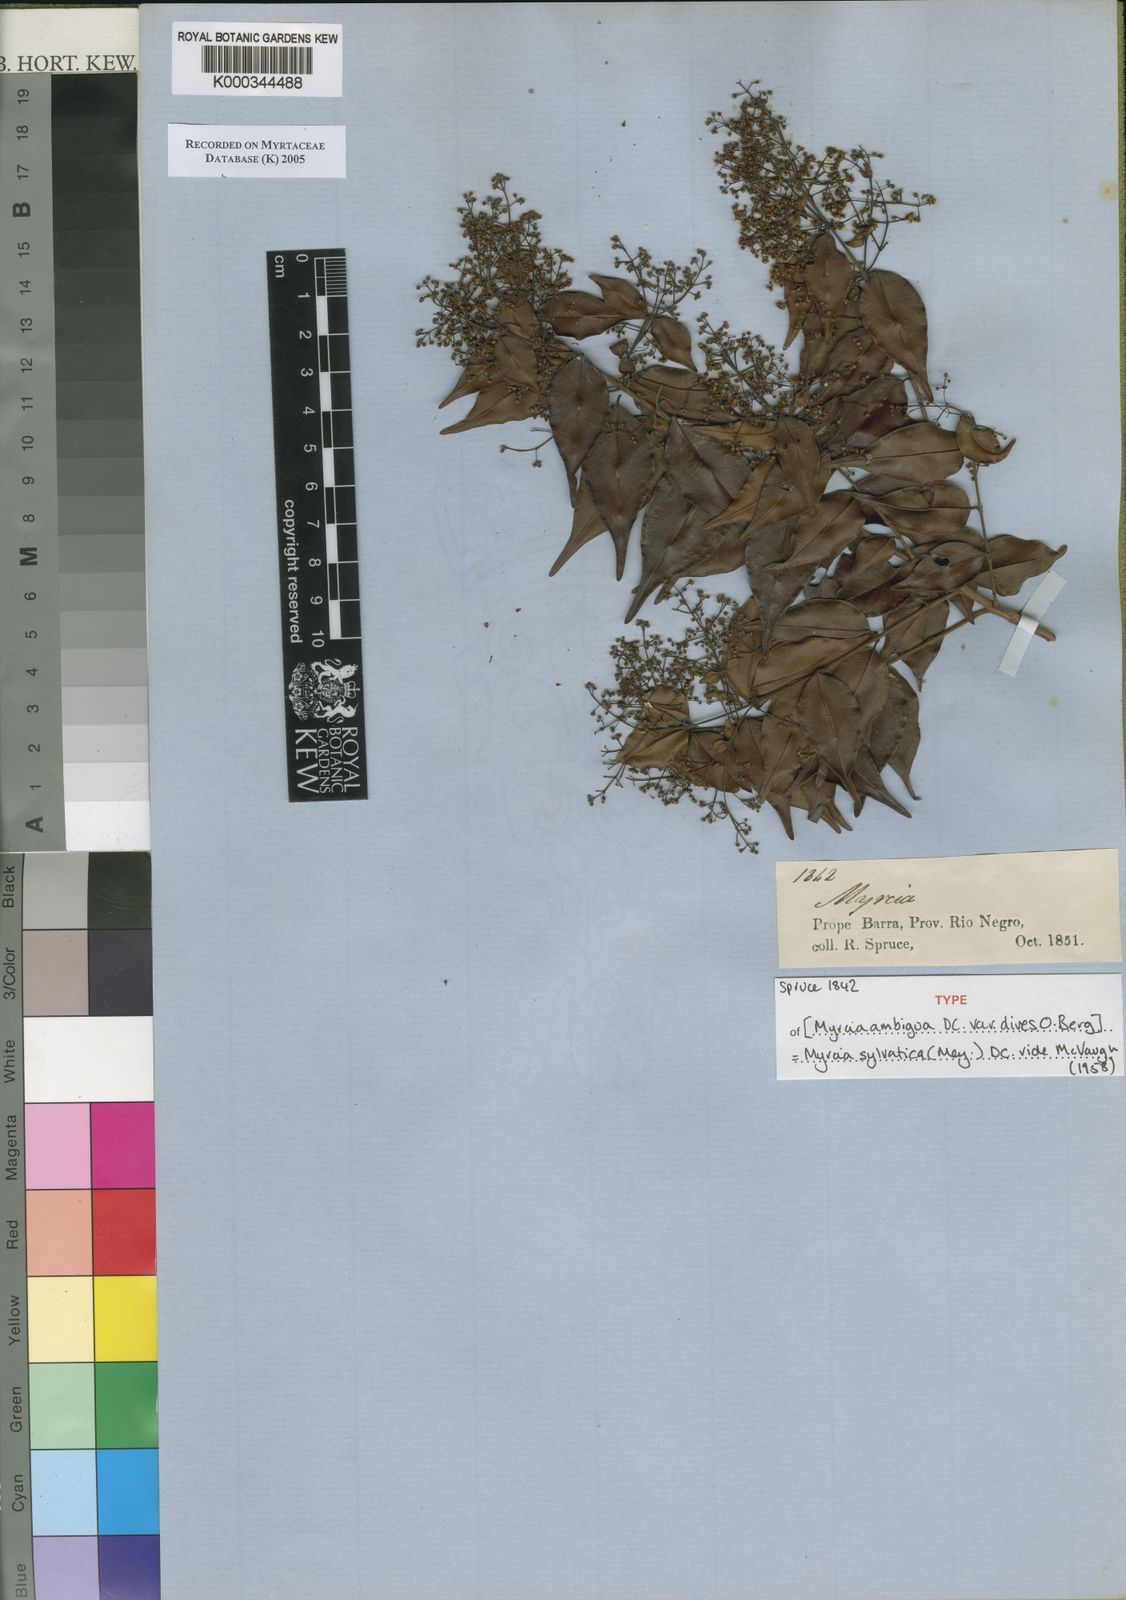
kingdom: Plantae
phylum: Tracheophyta
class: Magnoliopsida
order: Myrtales
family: Myrtaceae
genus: Myrcia
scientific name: Myrcia sylvatica
